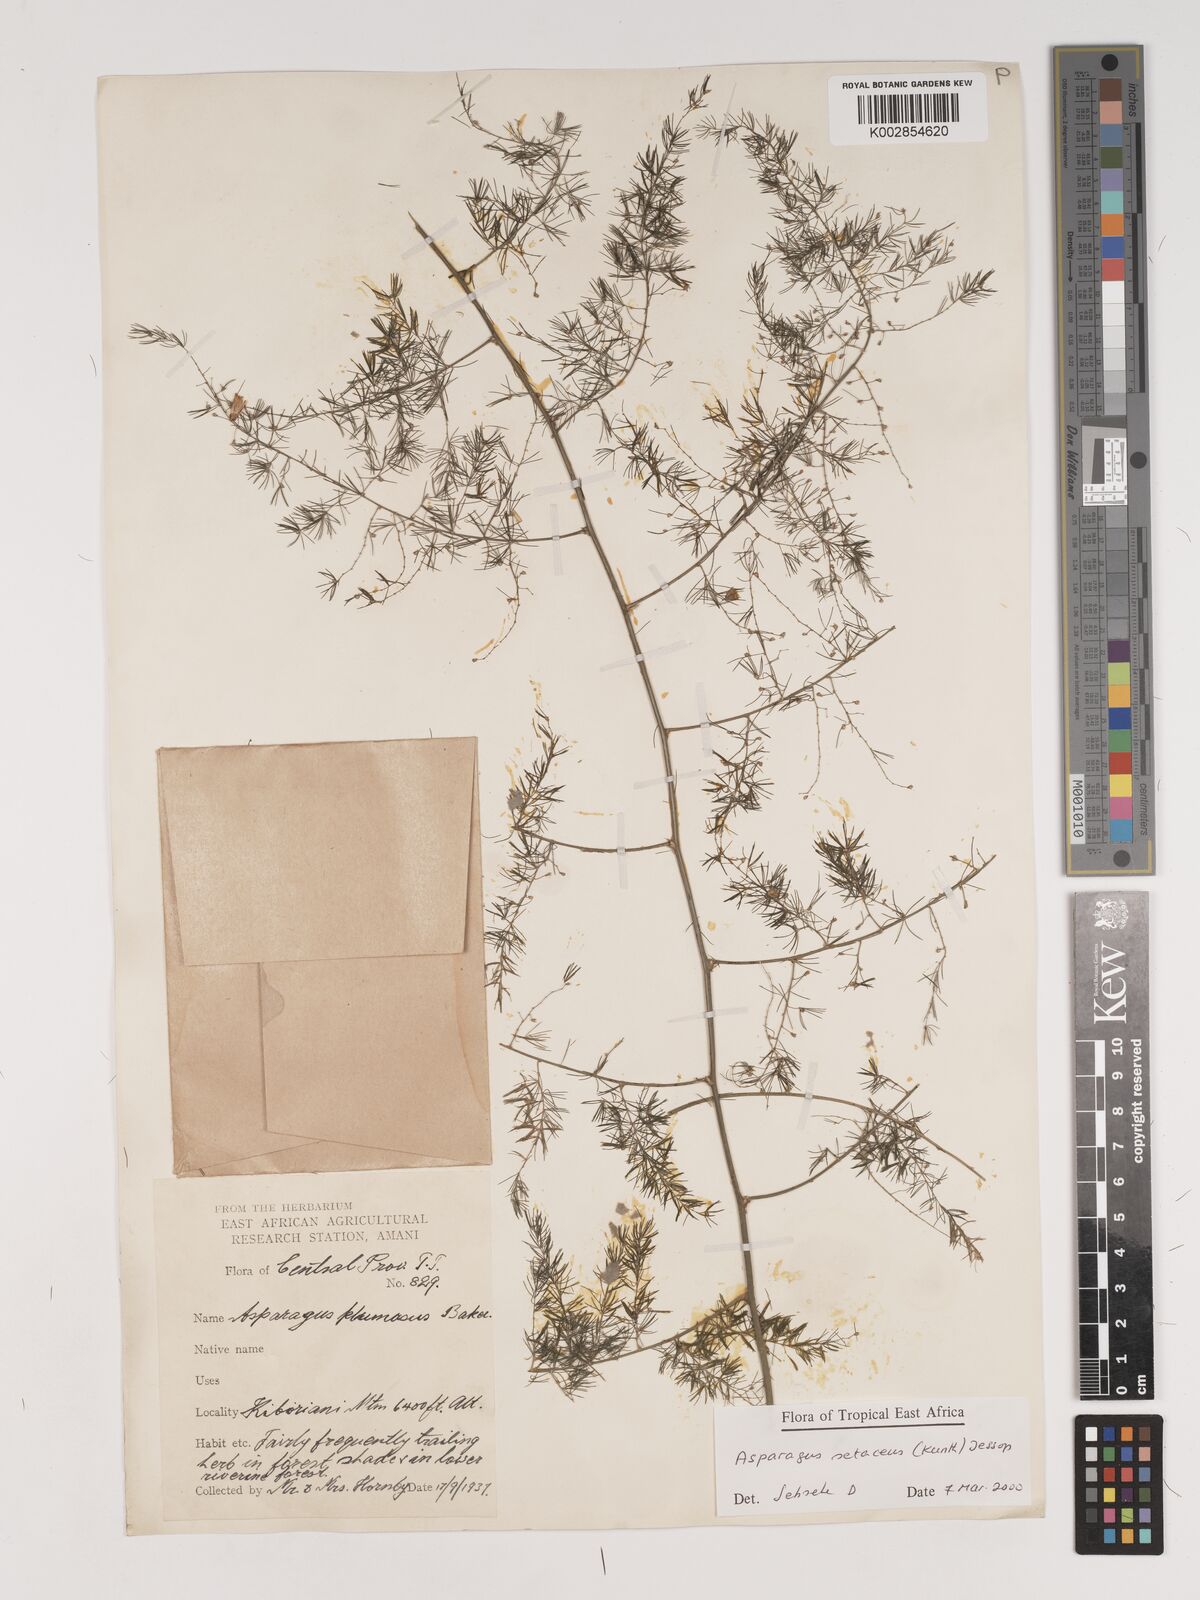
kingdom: Plantae
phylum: Tracheophyta
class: Liliopsida
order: Asparagales
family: Asparagaceae
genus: Asparagus
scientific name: Asparagus setaceus
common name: Common asparagus fern
